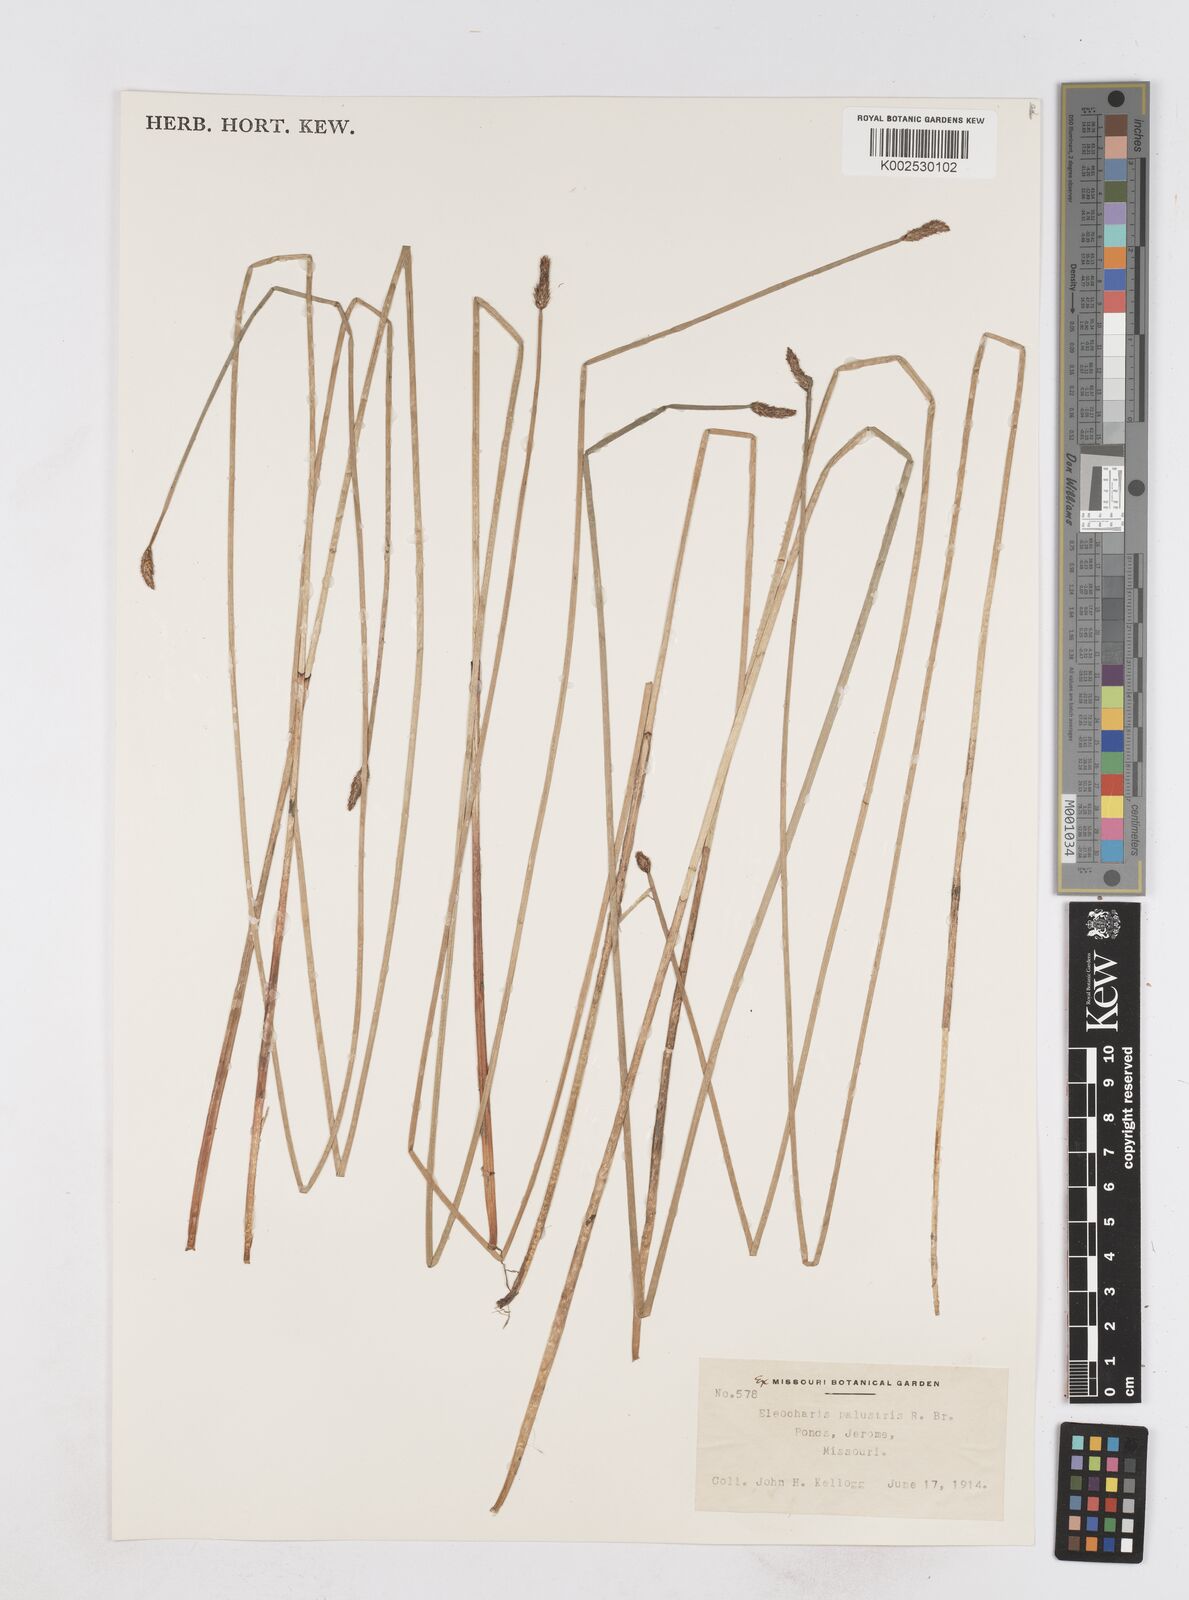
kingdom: Plantae
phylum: Tracheophyta
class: Liliopsida
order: Poales
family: Cyperaceae
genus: Eleocharis
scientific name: Eleocharis palustris
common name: Common spike-rush
